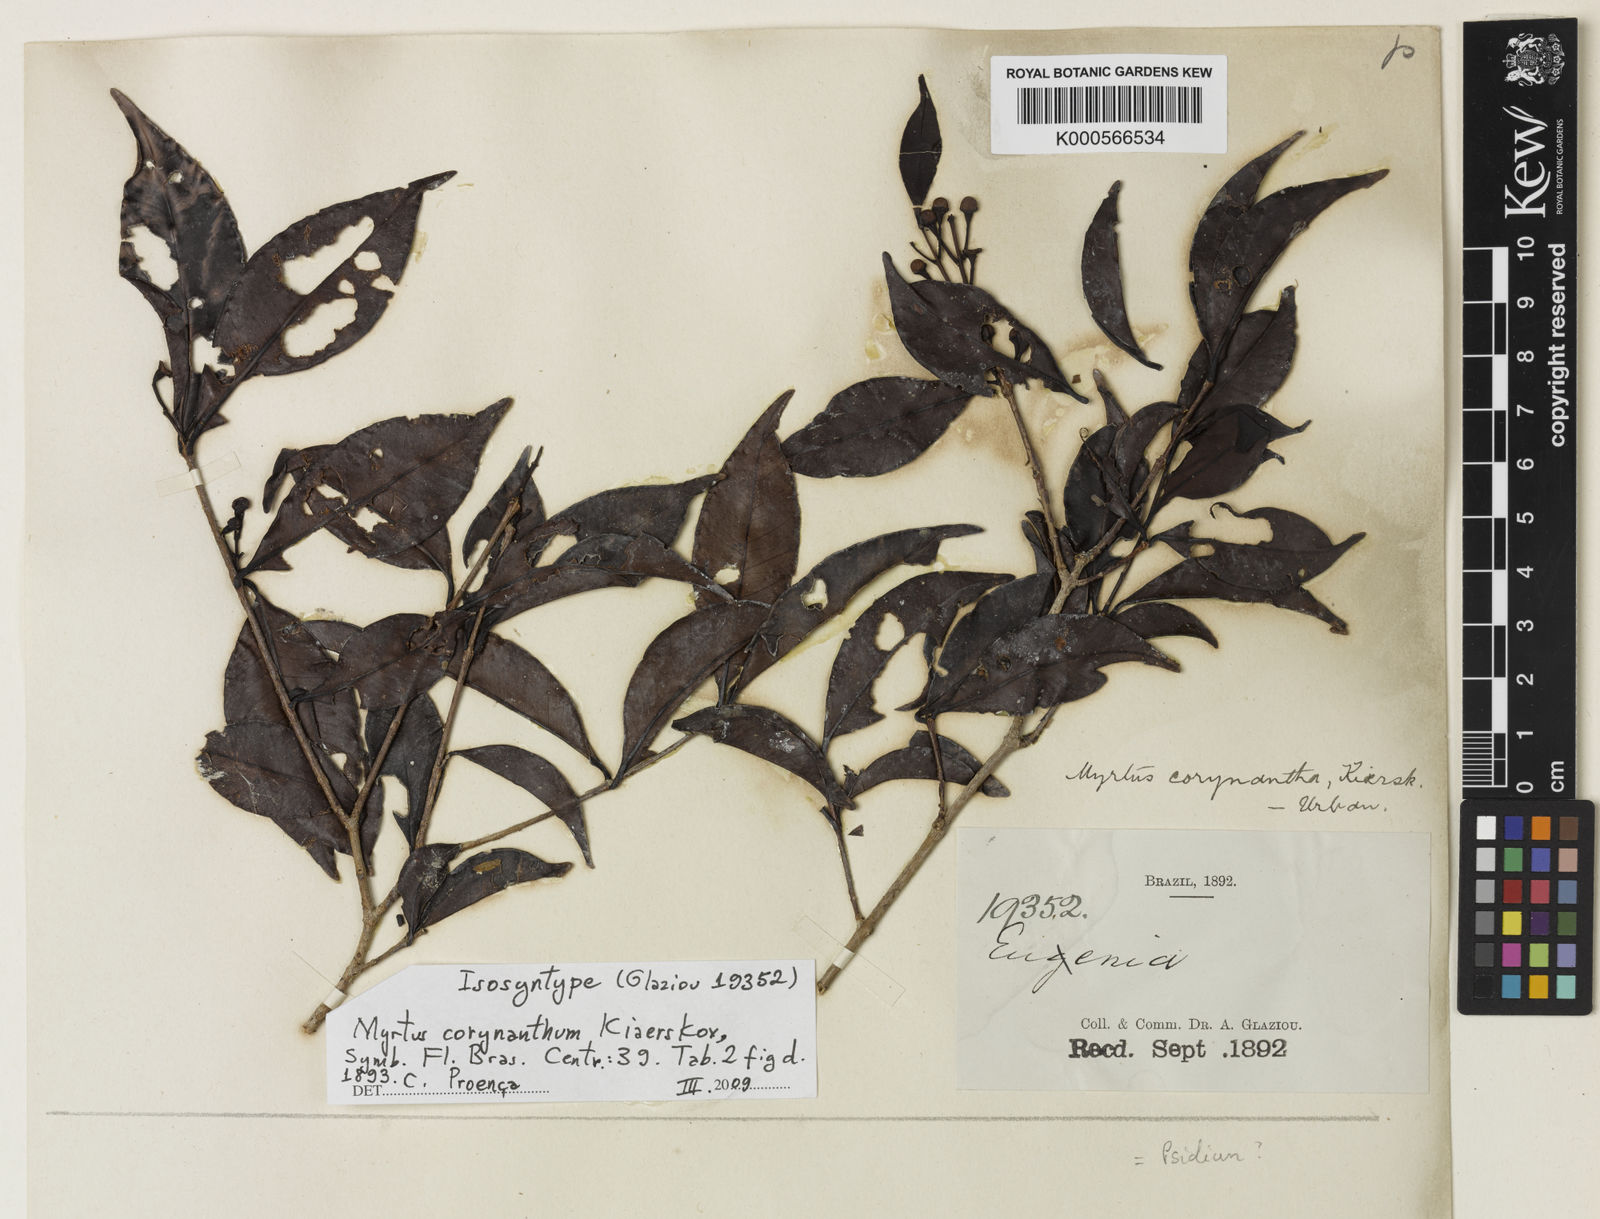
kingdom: Plantae
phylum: Tracheophyta
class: Magnoliopsida
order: Myrtales
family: Myrtaceae
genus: Myrtus
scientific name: Myrtus
